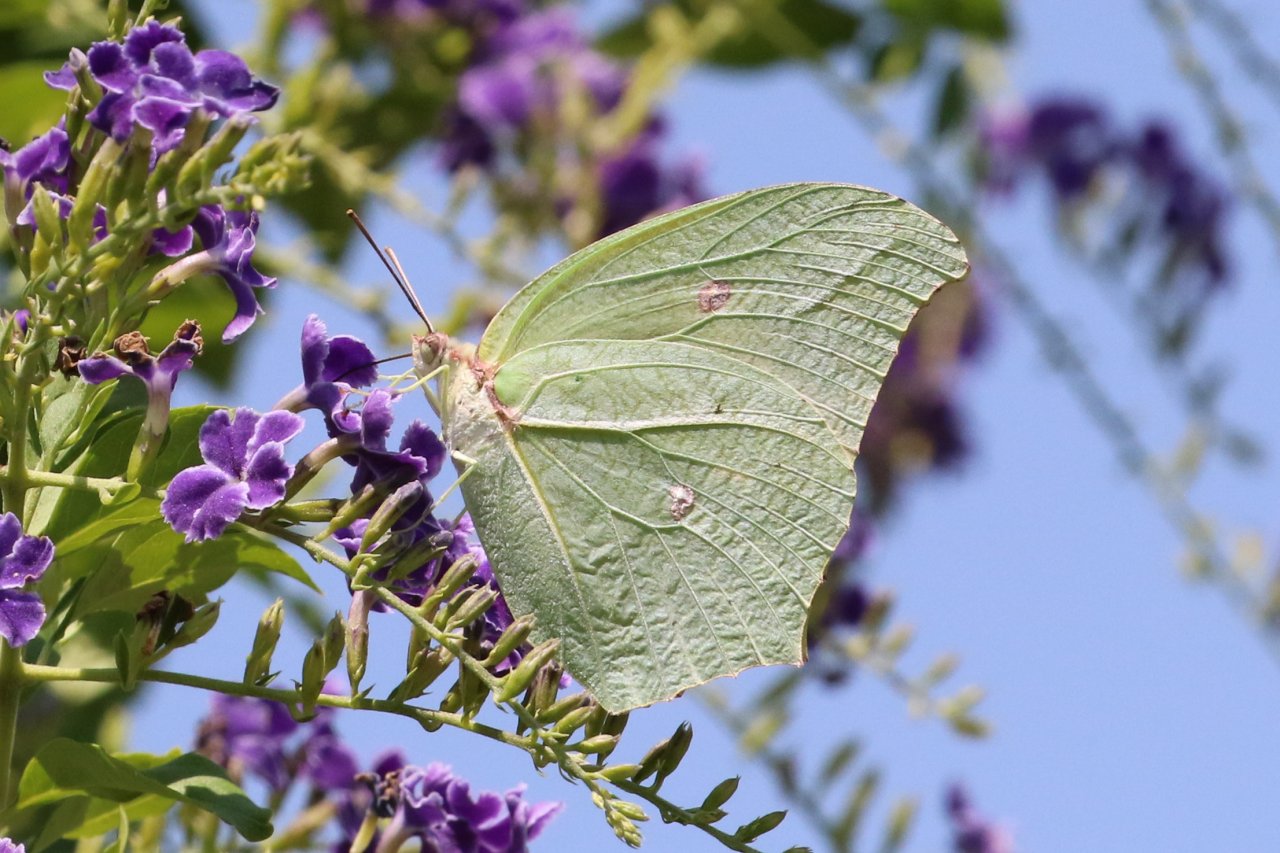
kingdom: Animalia
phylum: Arthropoda
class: Insecta
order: Lepidoptera
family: Pieridae
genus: Anteos
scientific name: Anteos maerula
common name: Yellow Angled-Sulphur
